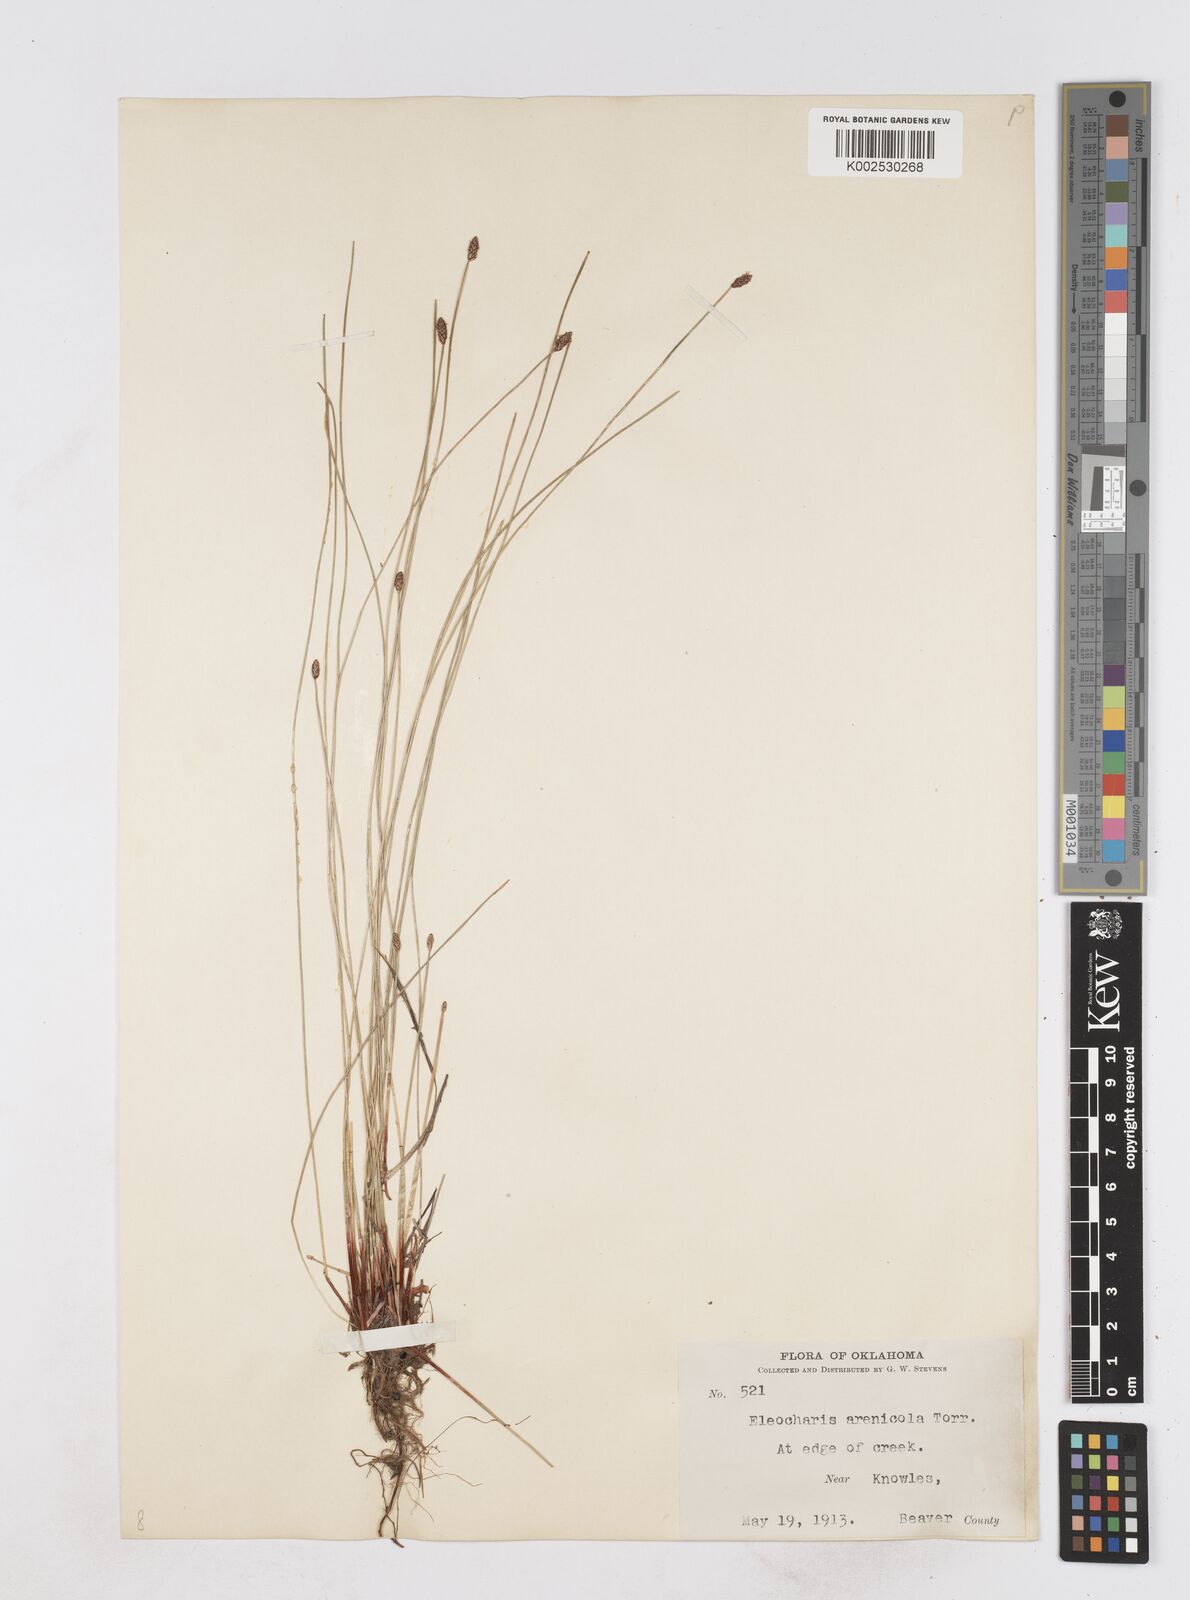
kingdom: Plantae
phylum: Tracheophyta
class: Liliopsida
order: Poales
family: Cyperaceae
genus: Eleocharis
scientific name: Eleocharis macounii
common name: Macoun's spikerush
